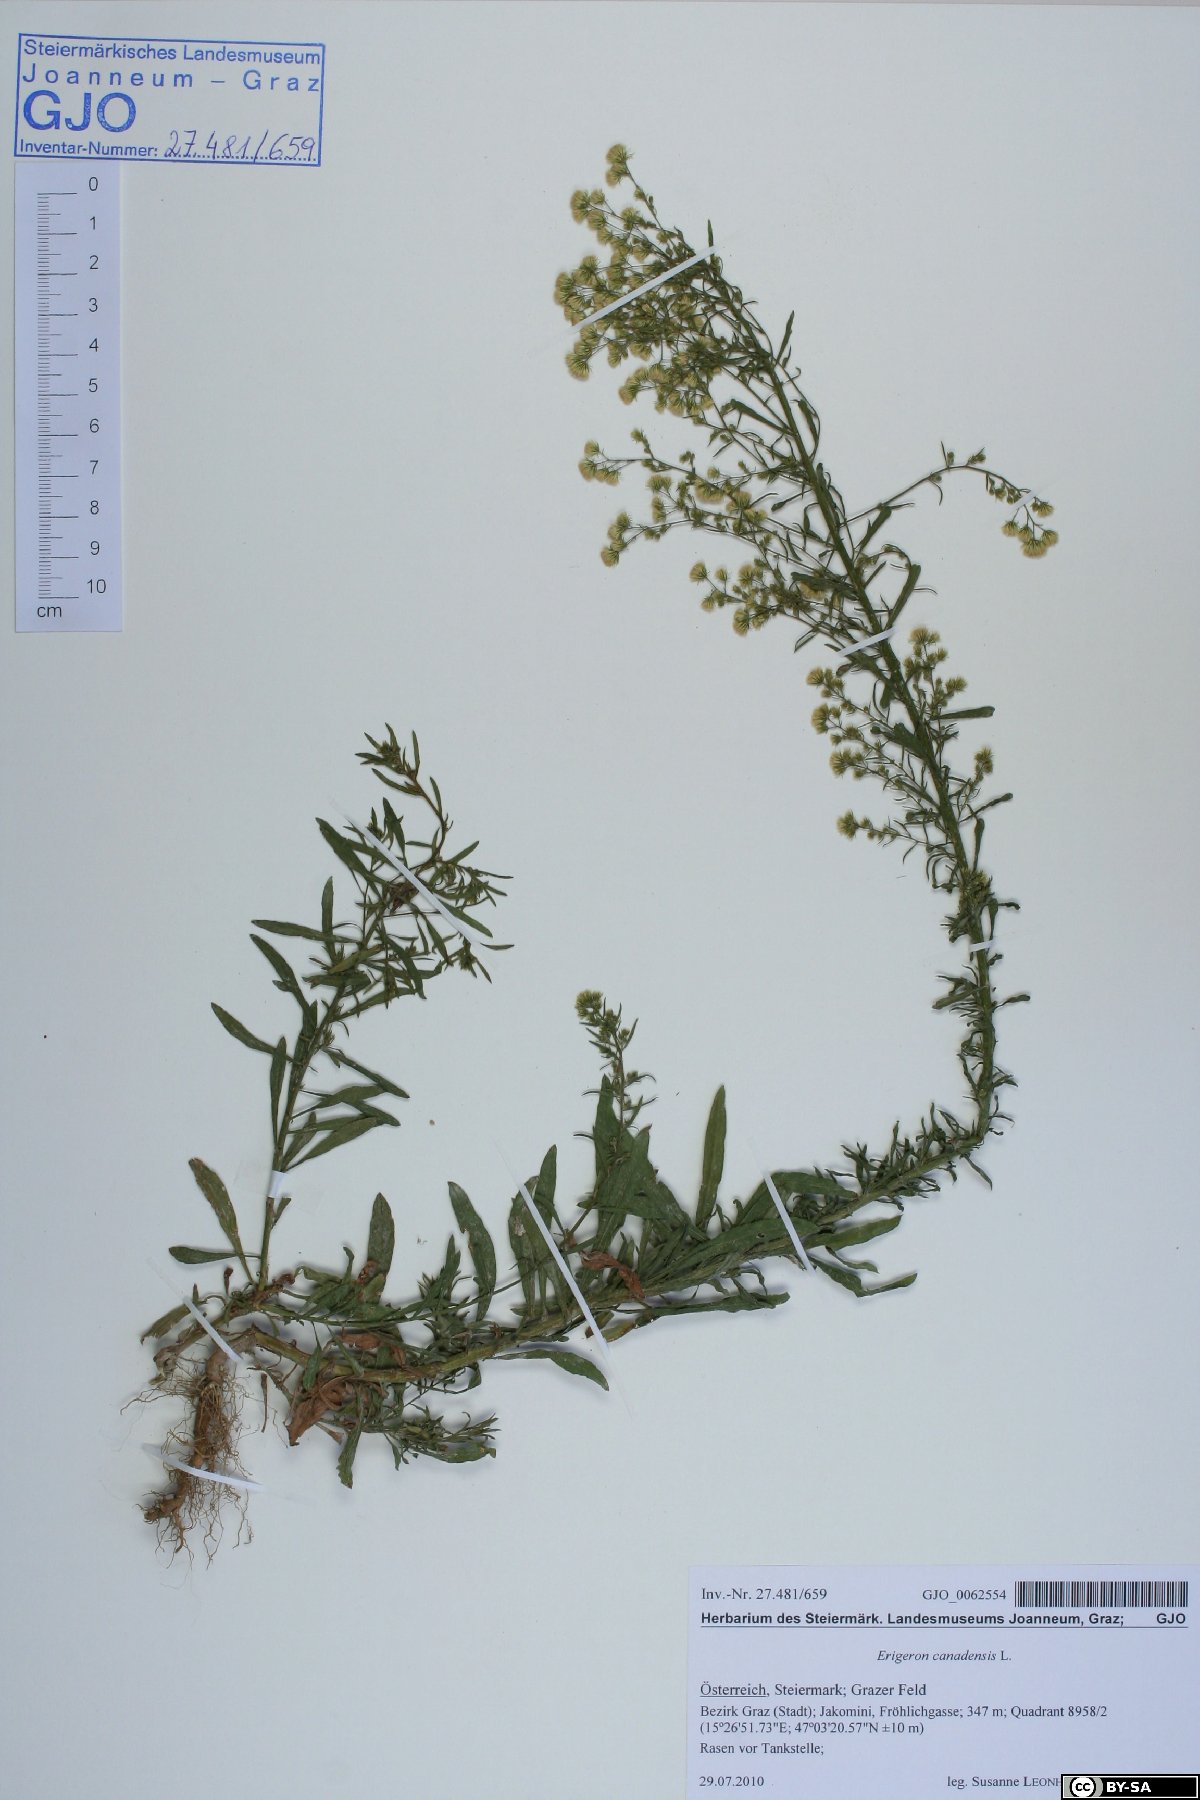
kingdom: Plantae
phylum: Tracheophyta
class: Magnoliopsida
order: Asterales
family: Asteraceae
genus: Erigeron
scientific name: Erigeron canadensis
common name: Canadian fleabane
